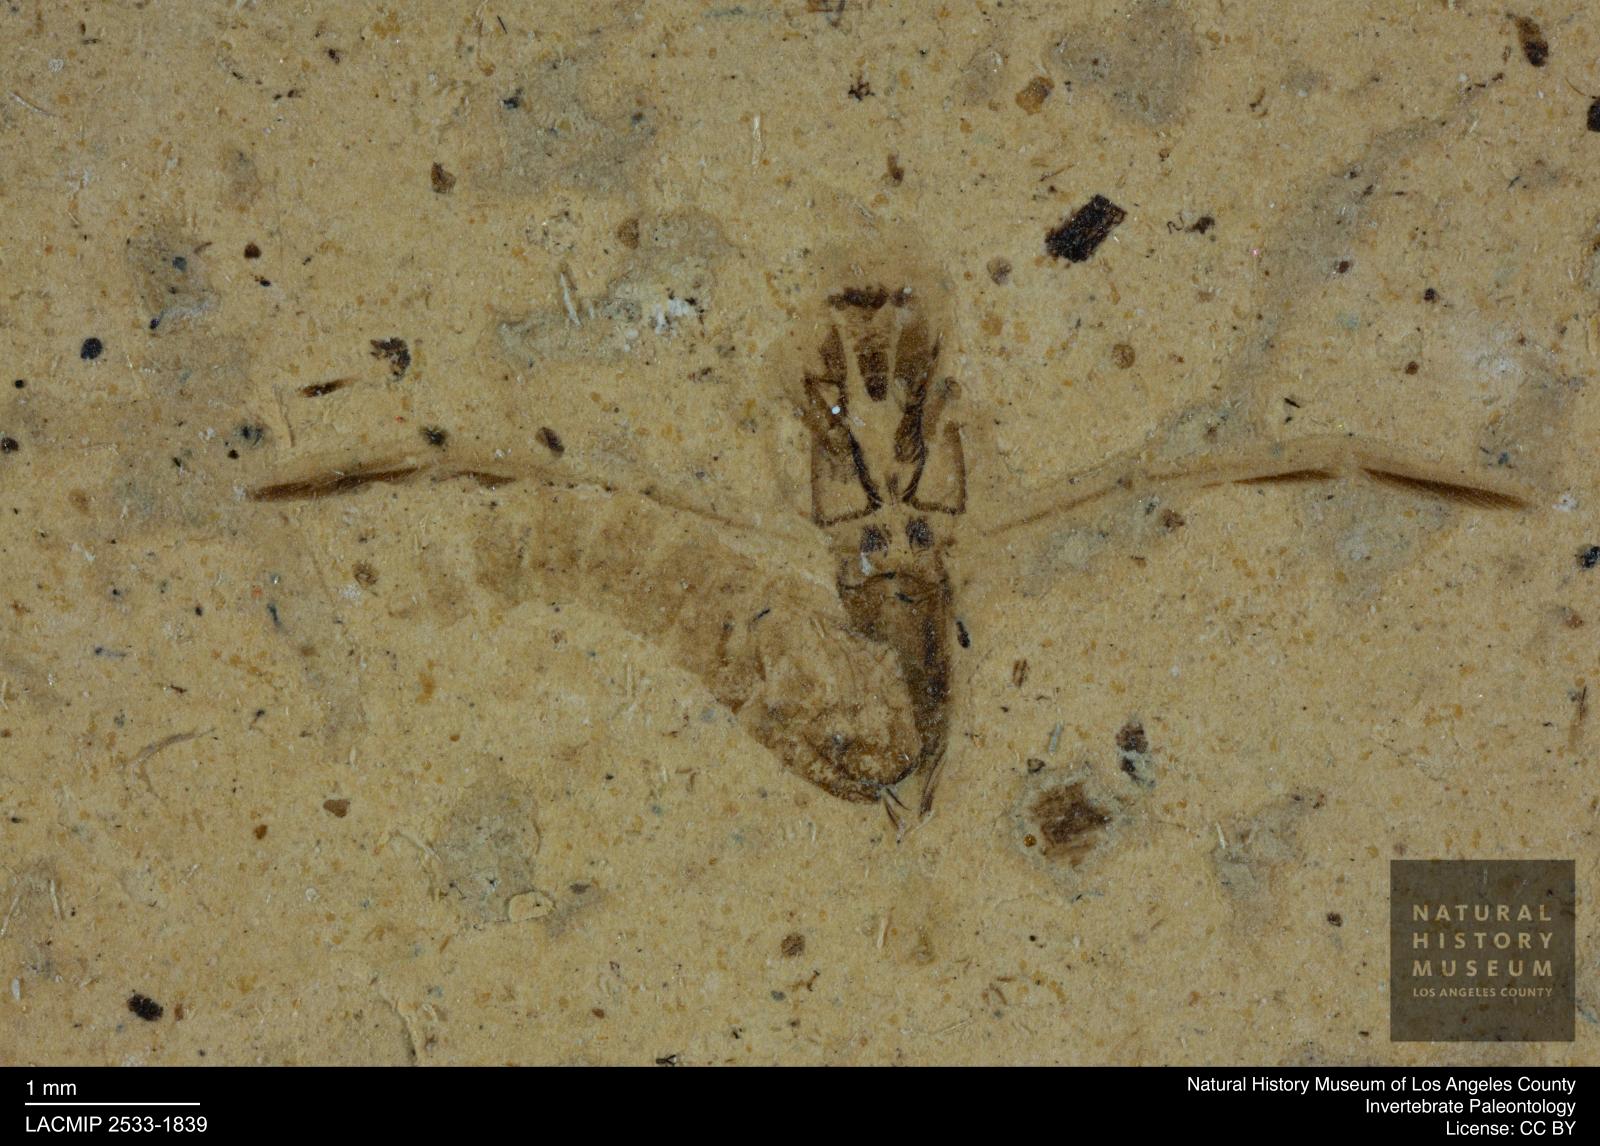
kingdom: Animalia
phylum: Arthropoda
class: Insecta
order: Hemiptera
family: Notonectidae
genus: Notonecta
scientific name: Notonecta
